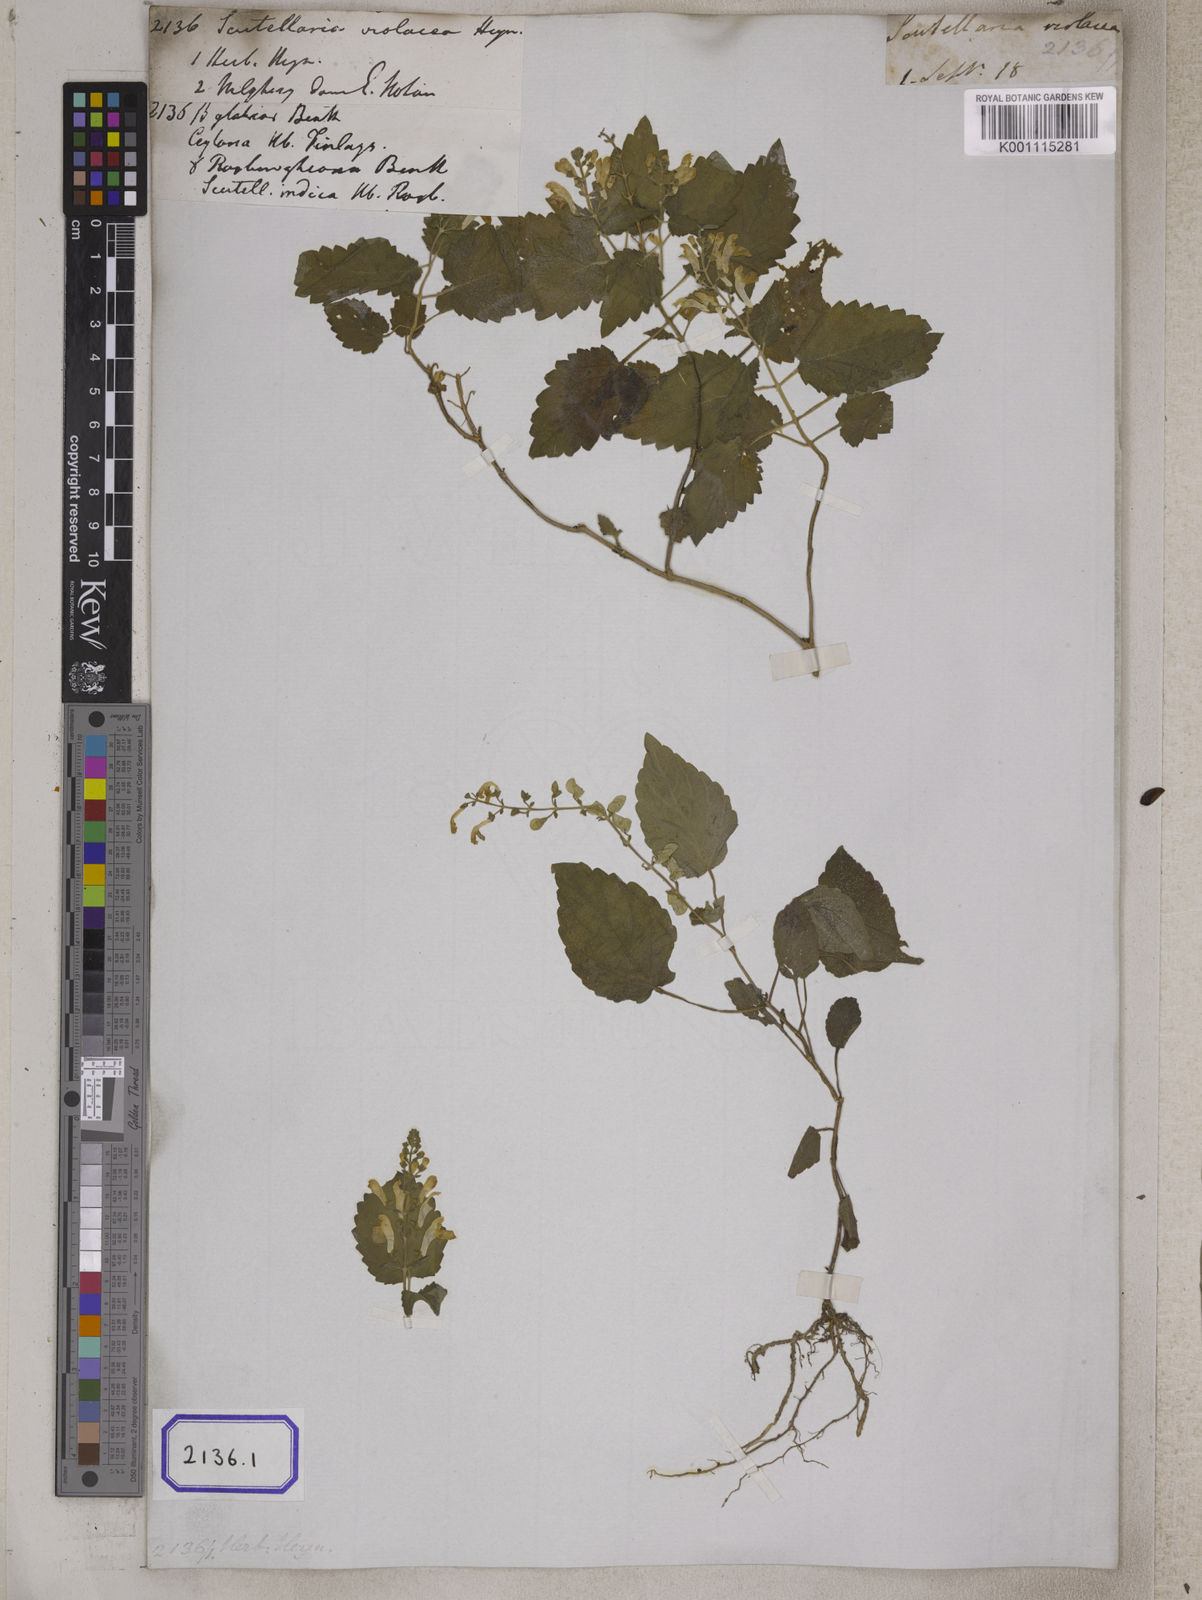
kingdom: Plantae
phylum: Tracheophyta
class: Magnoliopsida
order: Lamiales
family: Lamiaceae
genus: Scutellaria
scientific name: Scutellaria
